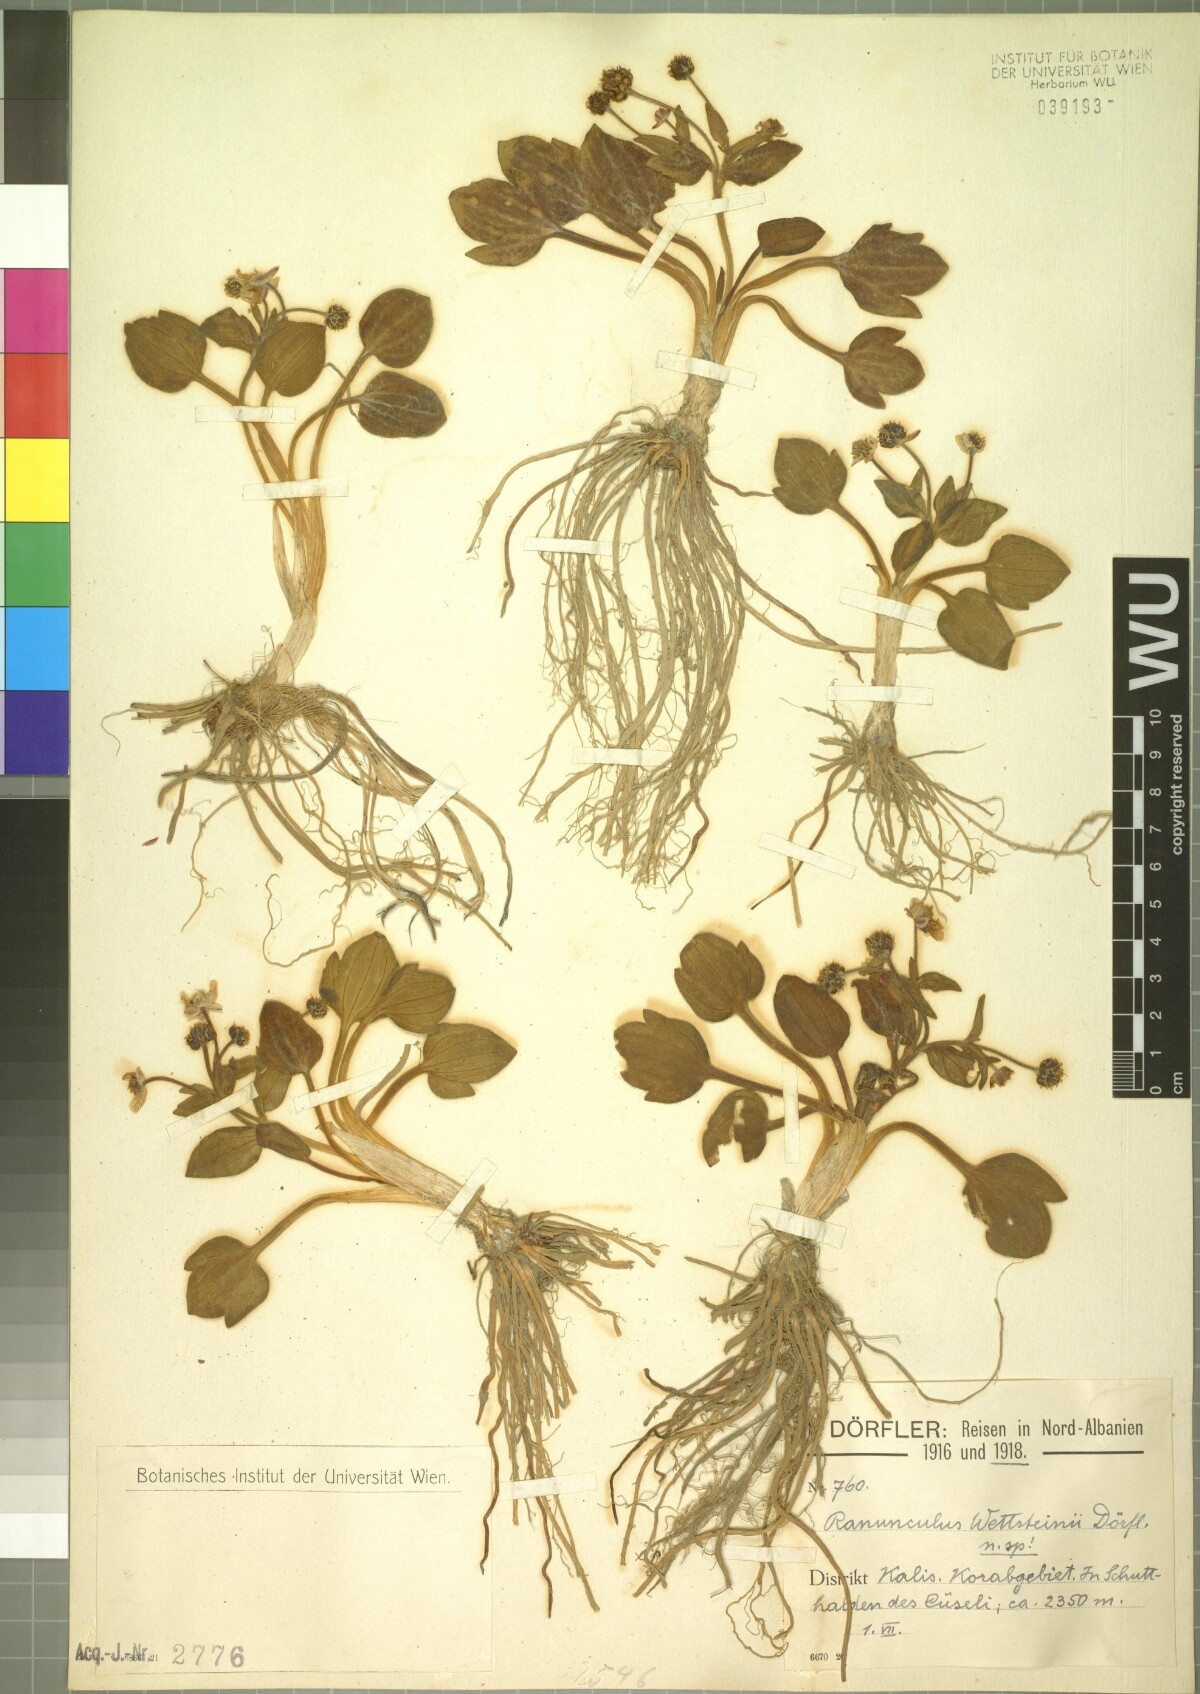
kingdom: Plantae
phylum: Tracheophyta
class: Magnoliopsida
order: Ranunculales
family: Ranunculaceae
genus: Ranunculus
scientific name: Ranunculus wettsteinii
